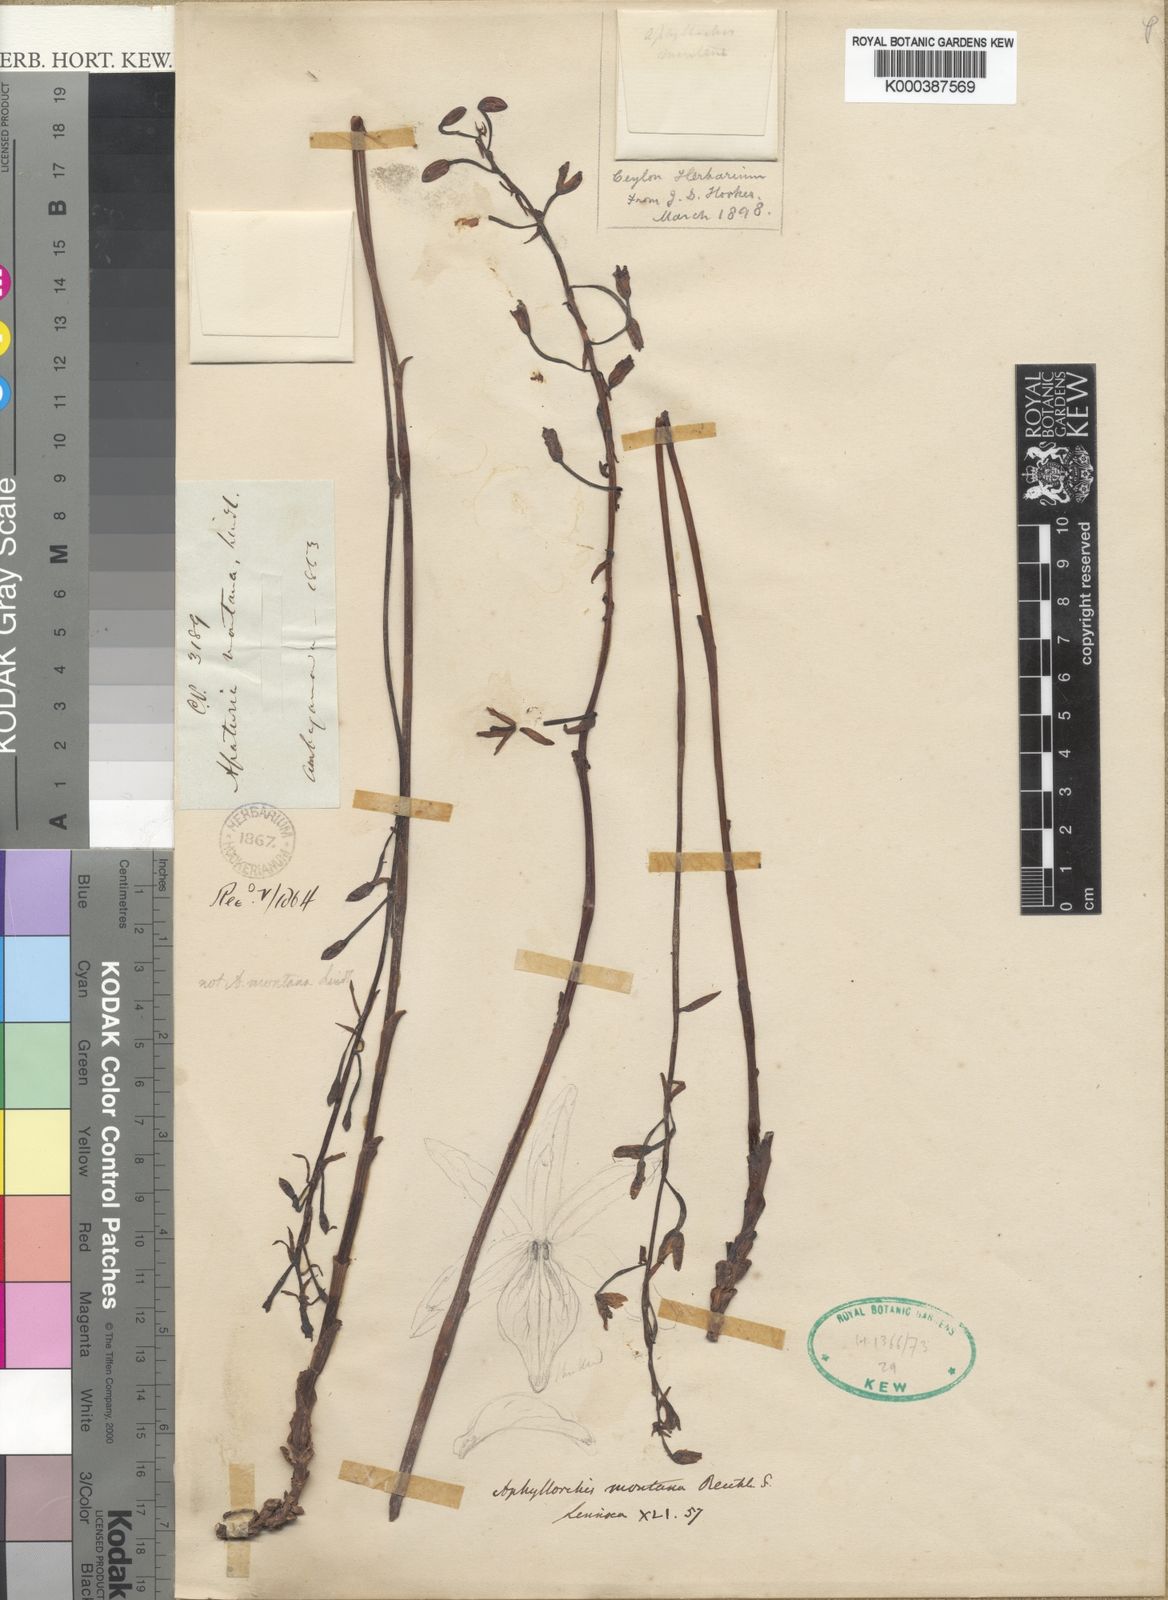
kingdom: Plantae
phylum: Tracheophyta
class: Liliopsida
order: Asparagales
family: Orchidaceae
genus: Aphyllorchis
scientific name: Aphyllorchis montana
